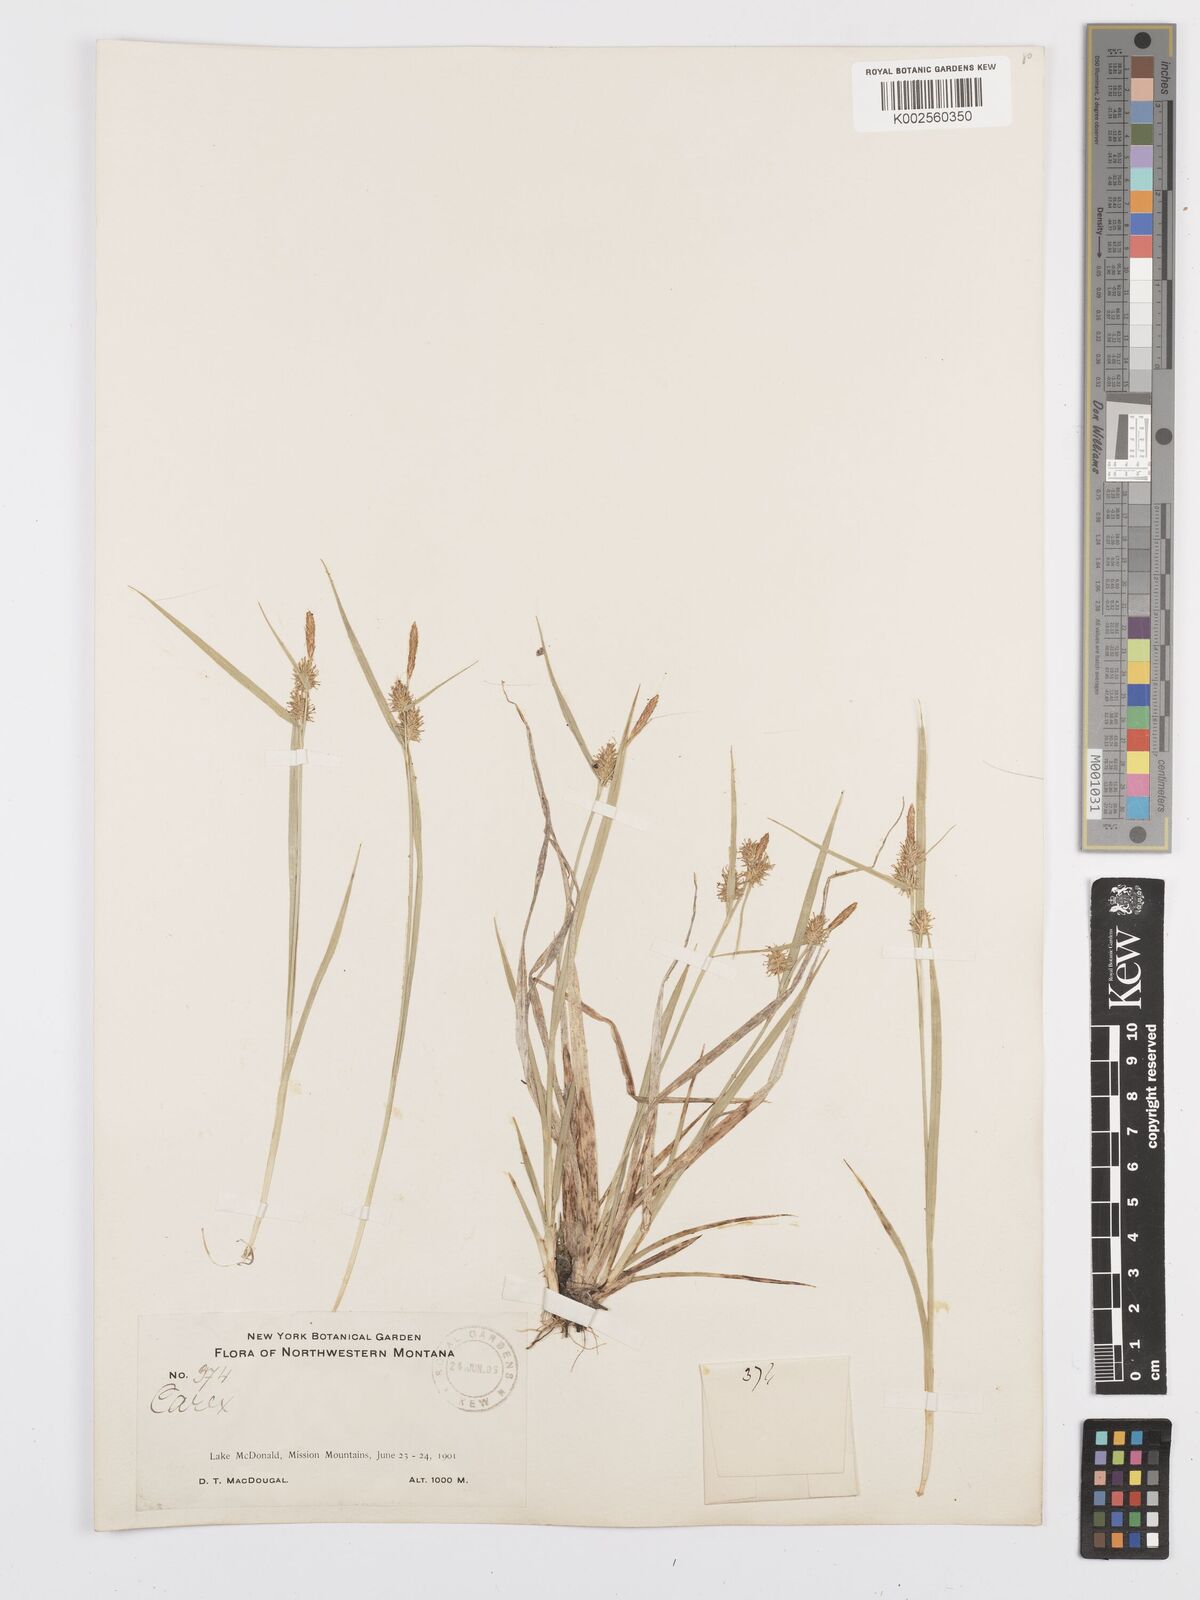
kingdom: Plantae
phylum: Tracheophyta
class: Liliopsida
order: Poales
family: Cyperaceae
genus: Carex
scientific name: Carex flava
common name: Large yellow-sedge
